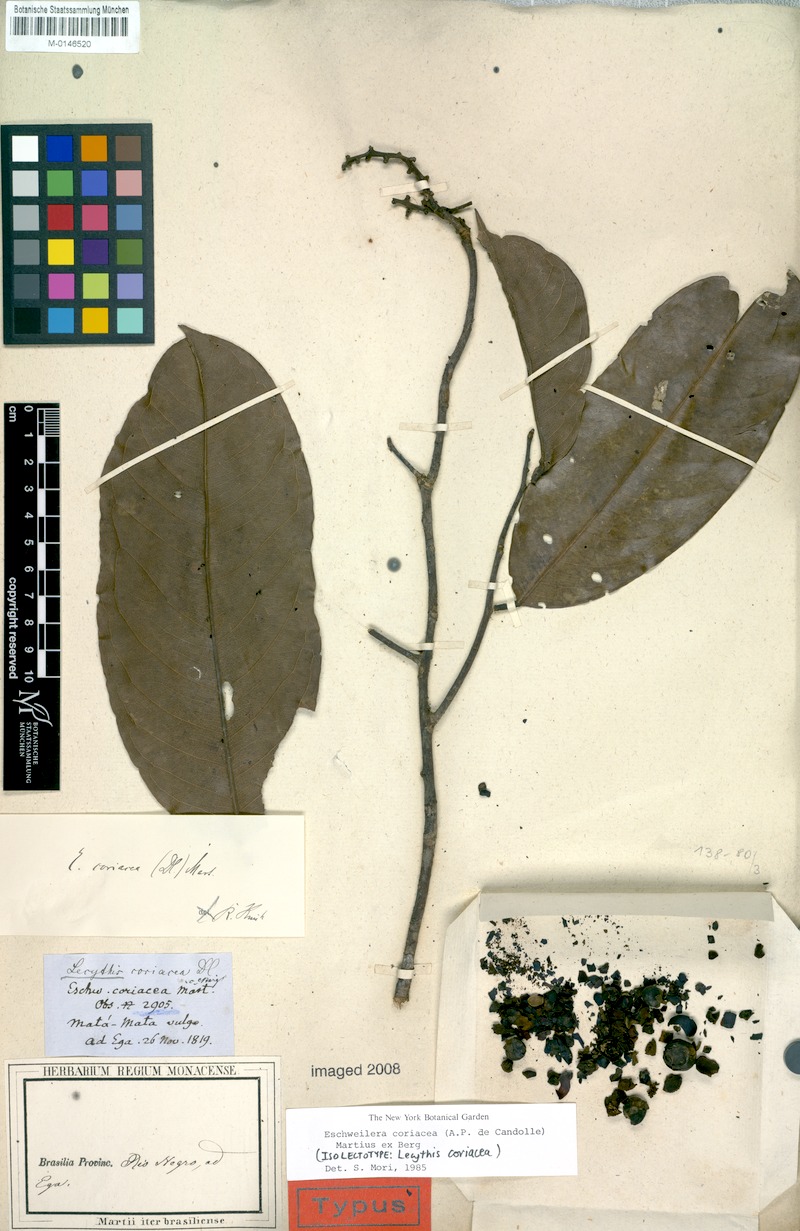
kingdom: Plantae
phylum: Tracheophyta
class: Magnoliopsida
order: Ericales
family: Lecythidaceae
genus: Eschweilera
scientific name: Eschweilera coriacea
